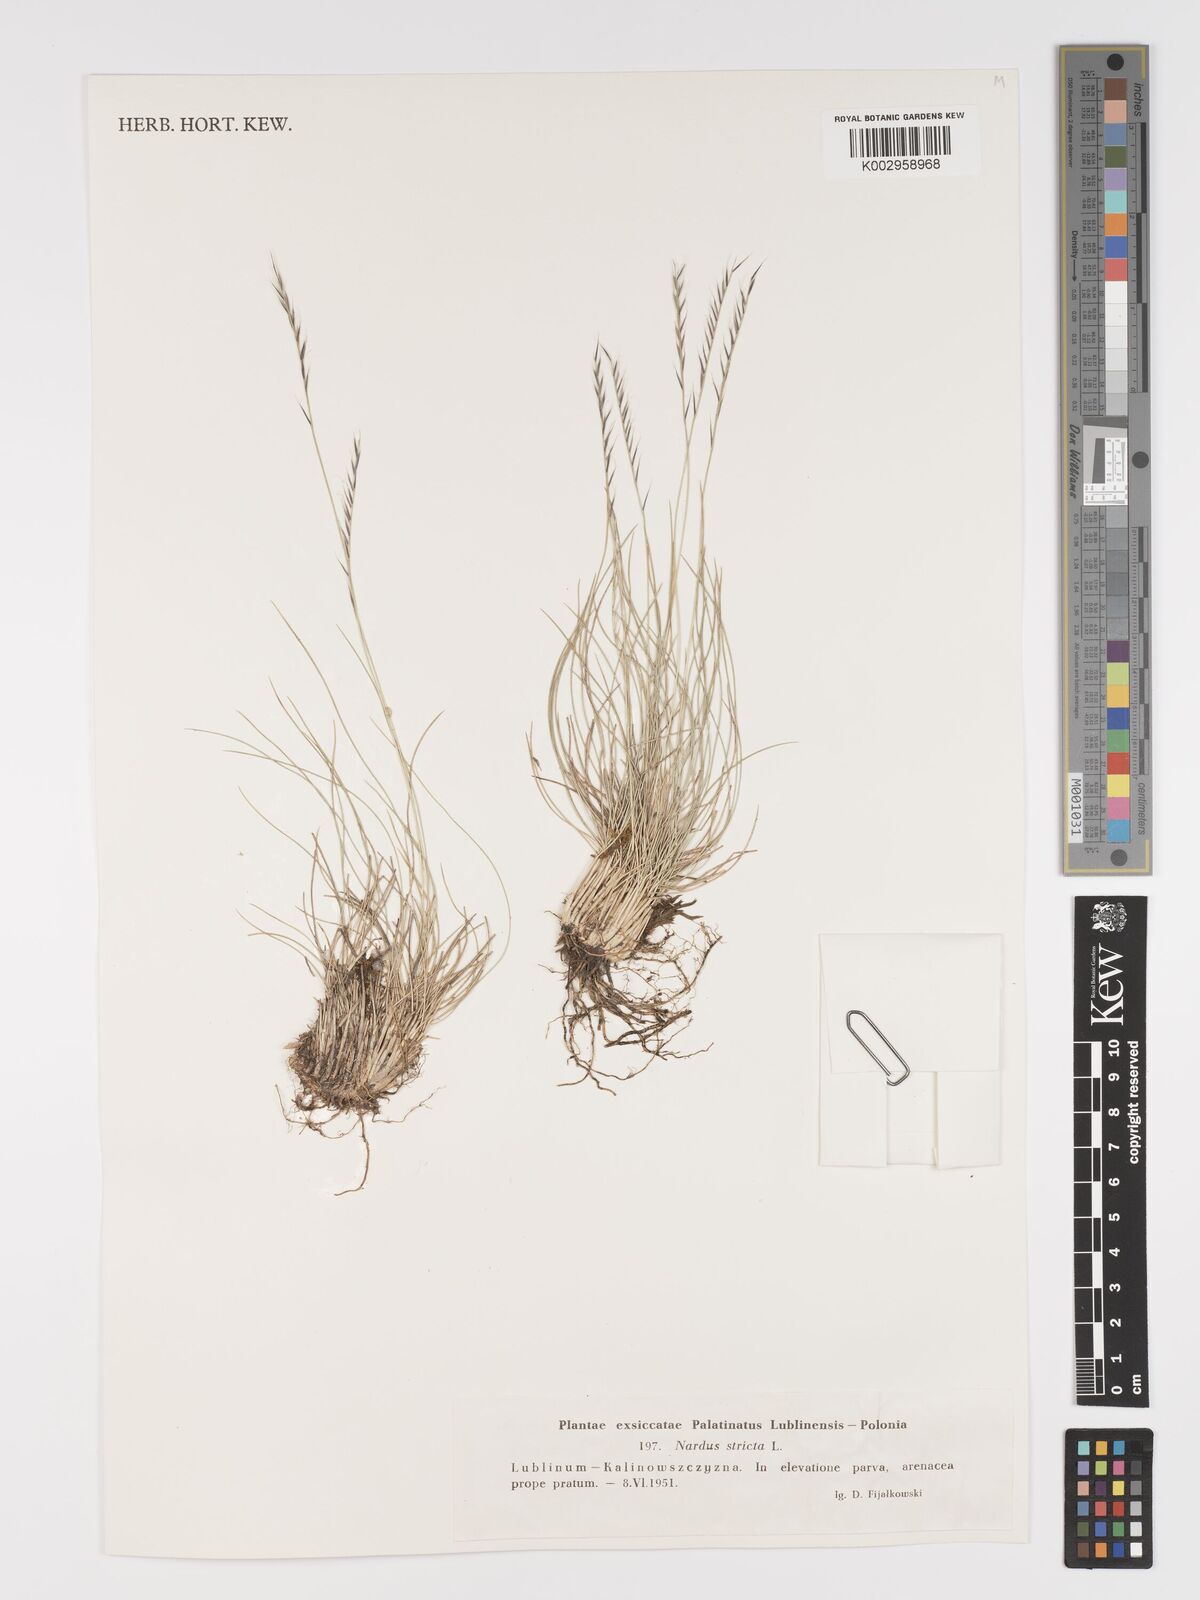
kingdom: Plantae
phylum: Tracheophyta
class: Liliopsida
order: Poales
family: Poaceae
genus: Nardus
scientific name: Nardus stricta
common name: Mat-grass
